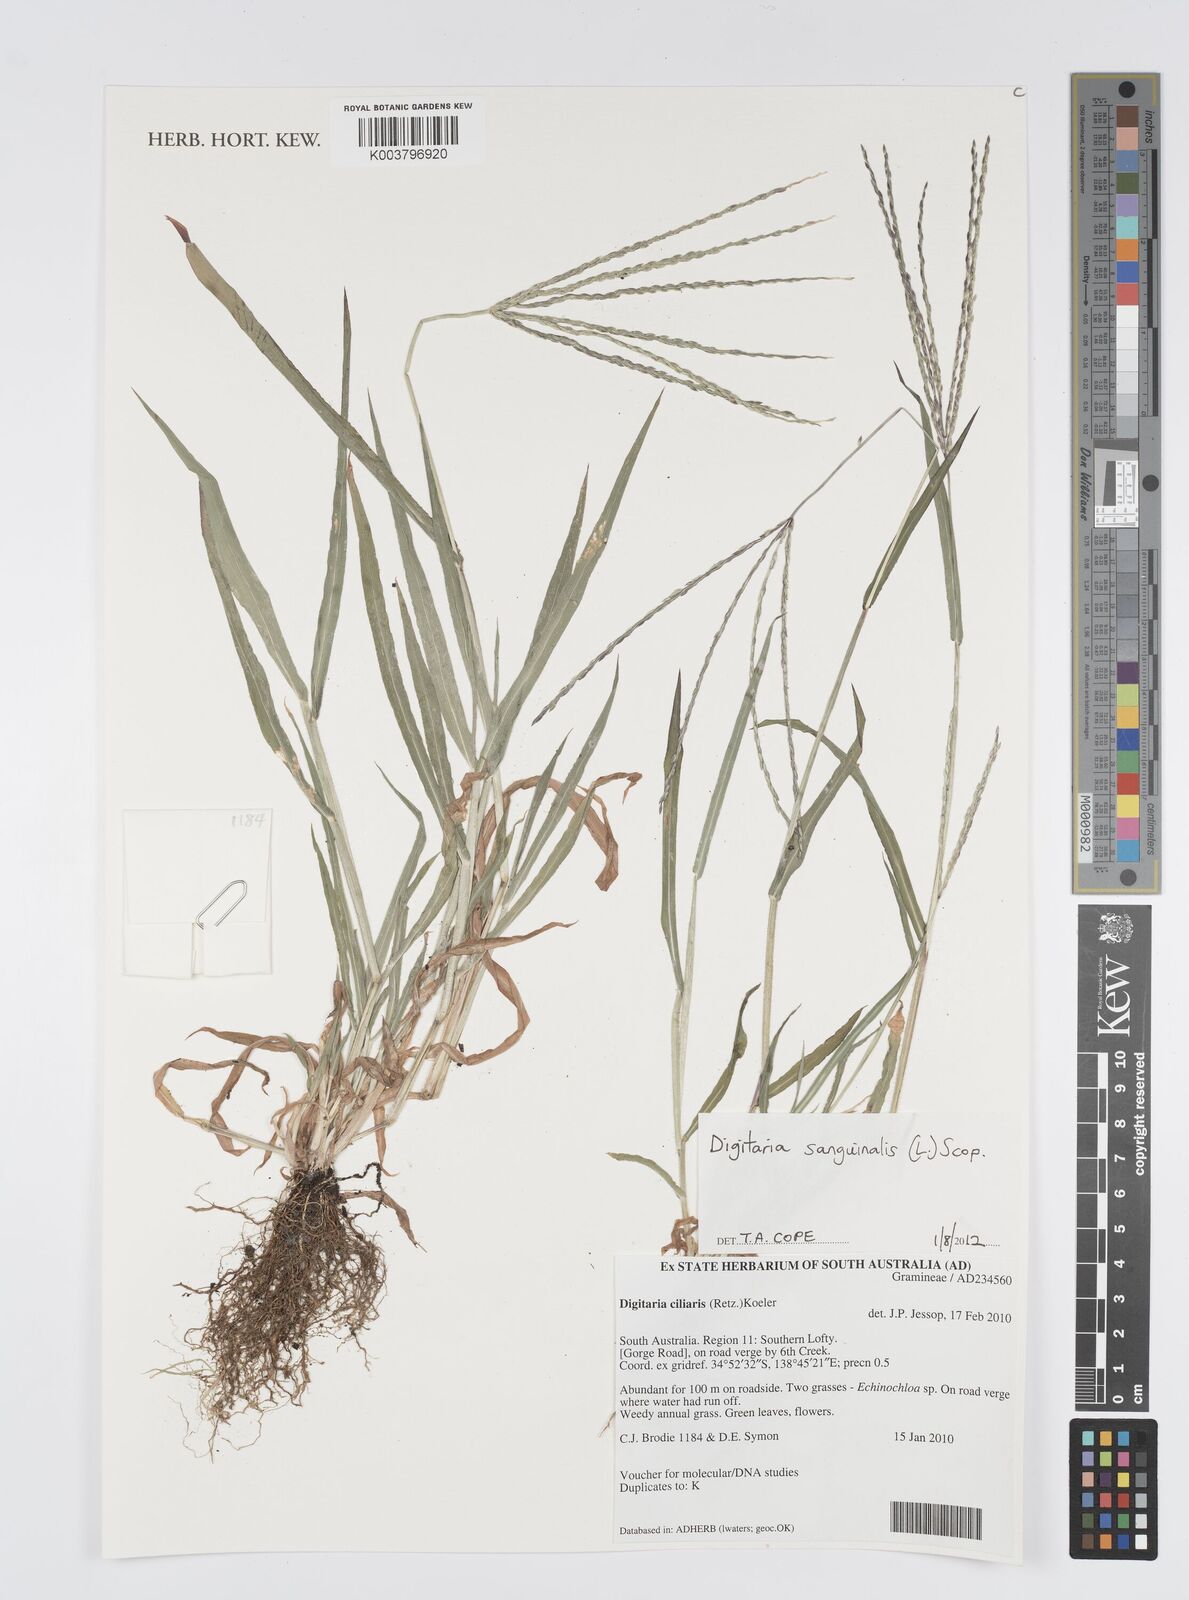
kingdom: Plantae
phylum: Tracheophyta
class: Liliopsida
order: Poales
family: Poaceae
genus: Digitaria
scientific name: Digitaria sanguinalis
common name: Hairy crabgrass
